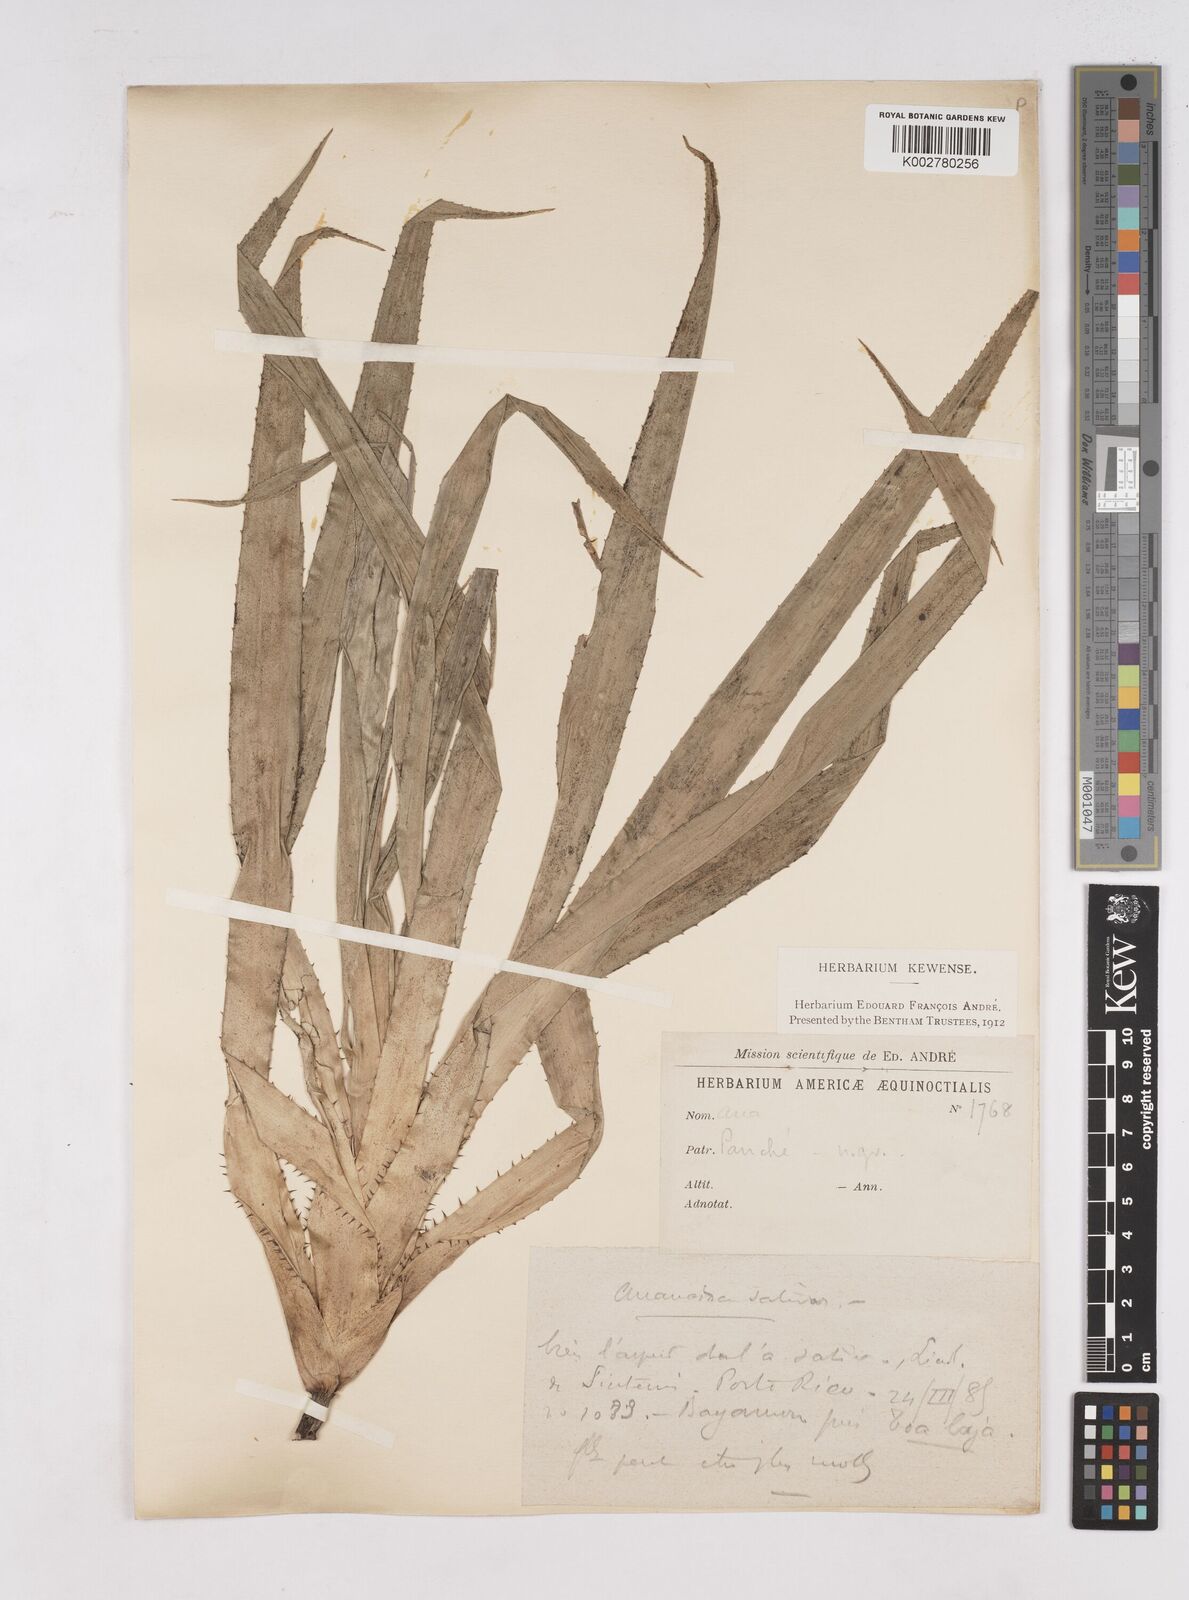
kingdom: Plantae
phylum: Tracheophyta
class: Liliopsida
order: Poales
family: Bromeliaceae
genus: Ananas
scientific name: Ananas comosus
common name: Pineapple
